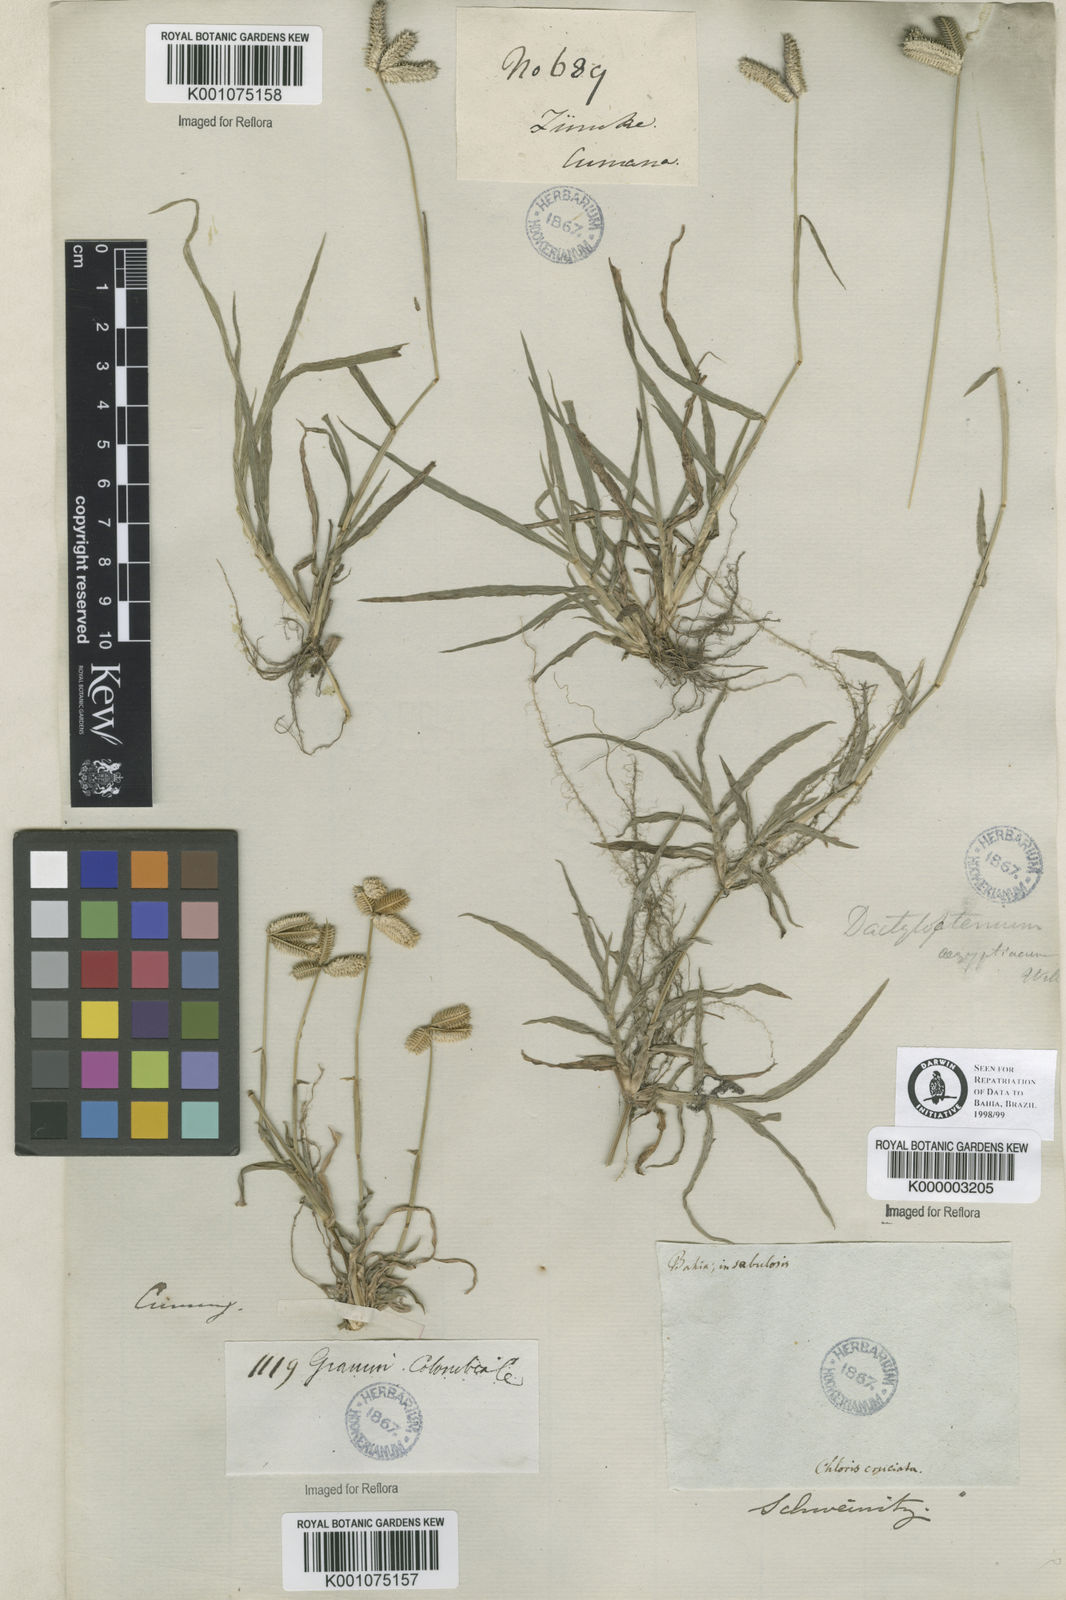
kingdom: Plantae
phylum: Tracheophyta
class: Liliopsida
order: Poales
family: Poaceae
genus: Dactyloctenium
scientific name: Dactyloctenium aegyptium
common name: Egyptian grass
